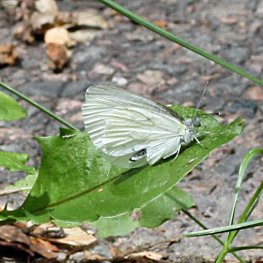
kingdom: Animalia
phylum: Arthropoda
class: Insecta
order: Lepidoptera
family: Pieridae
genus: Pieris
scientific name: Pieris oleracea
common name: Mustard White
